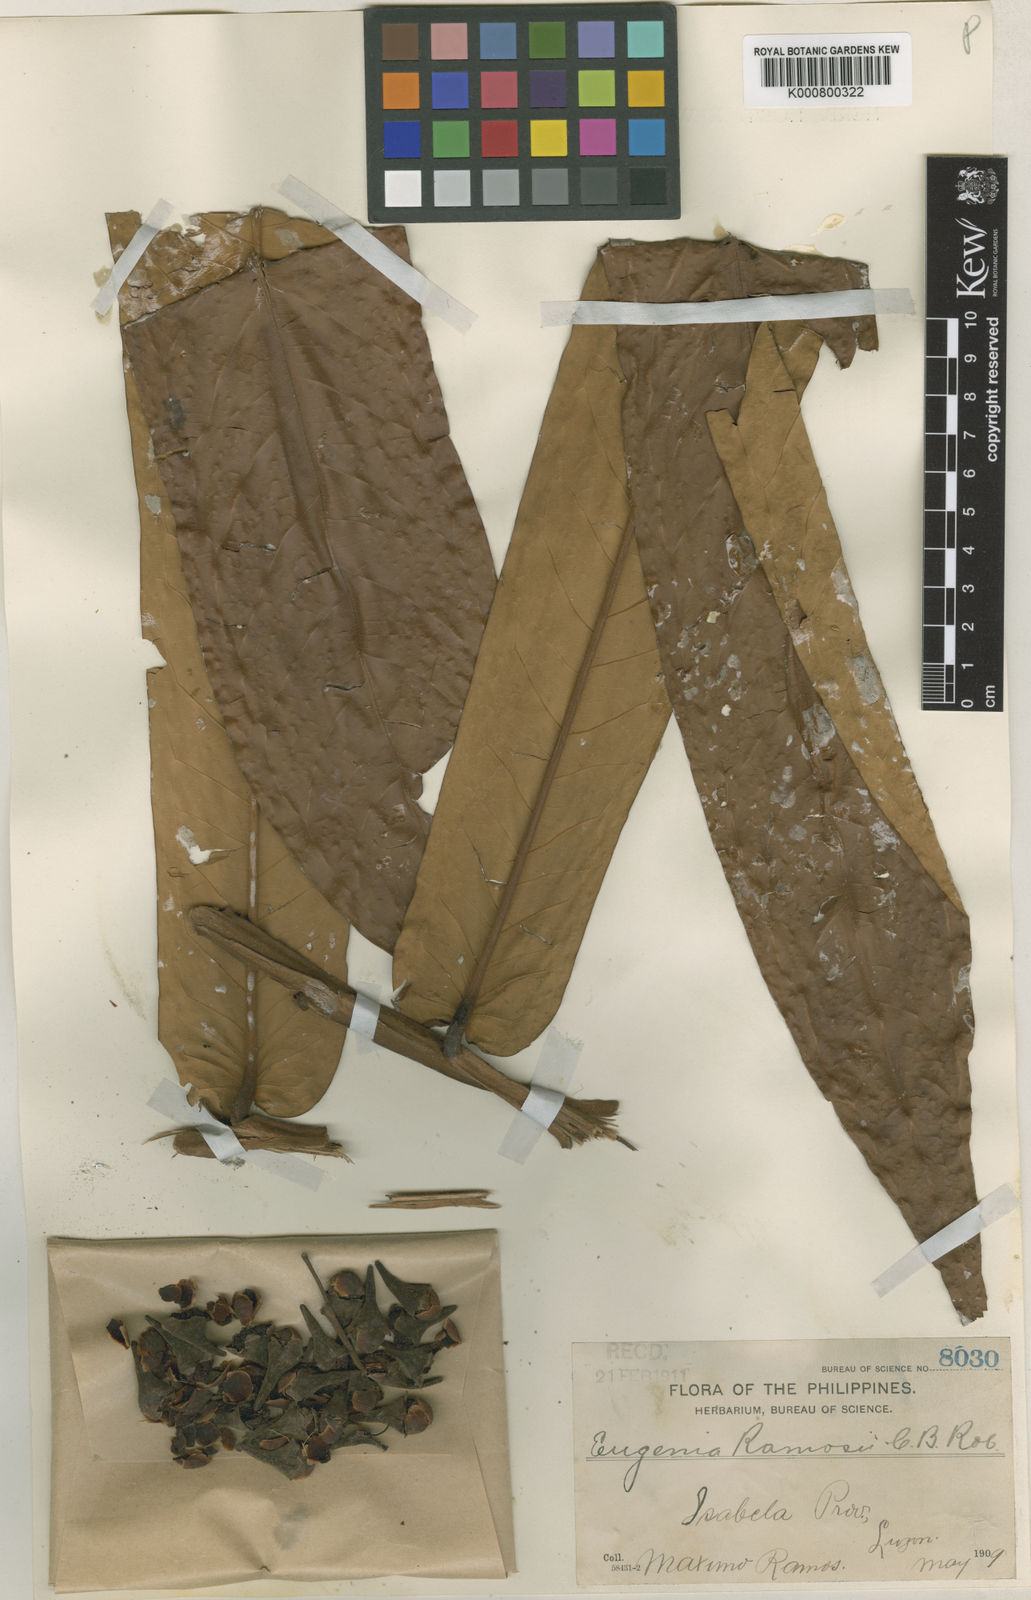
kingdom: Plantae
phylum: Tracheophyta
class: Magnoliopsida
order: Myrtales
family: Myrtaceae
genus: Syzygium
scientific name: Syzygium ramosii
